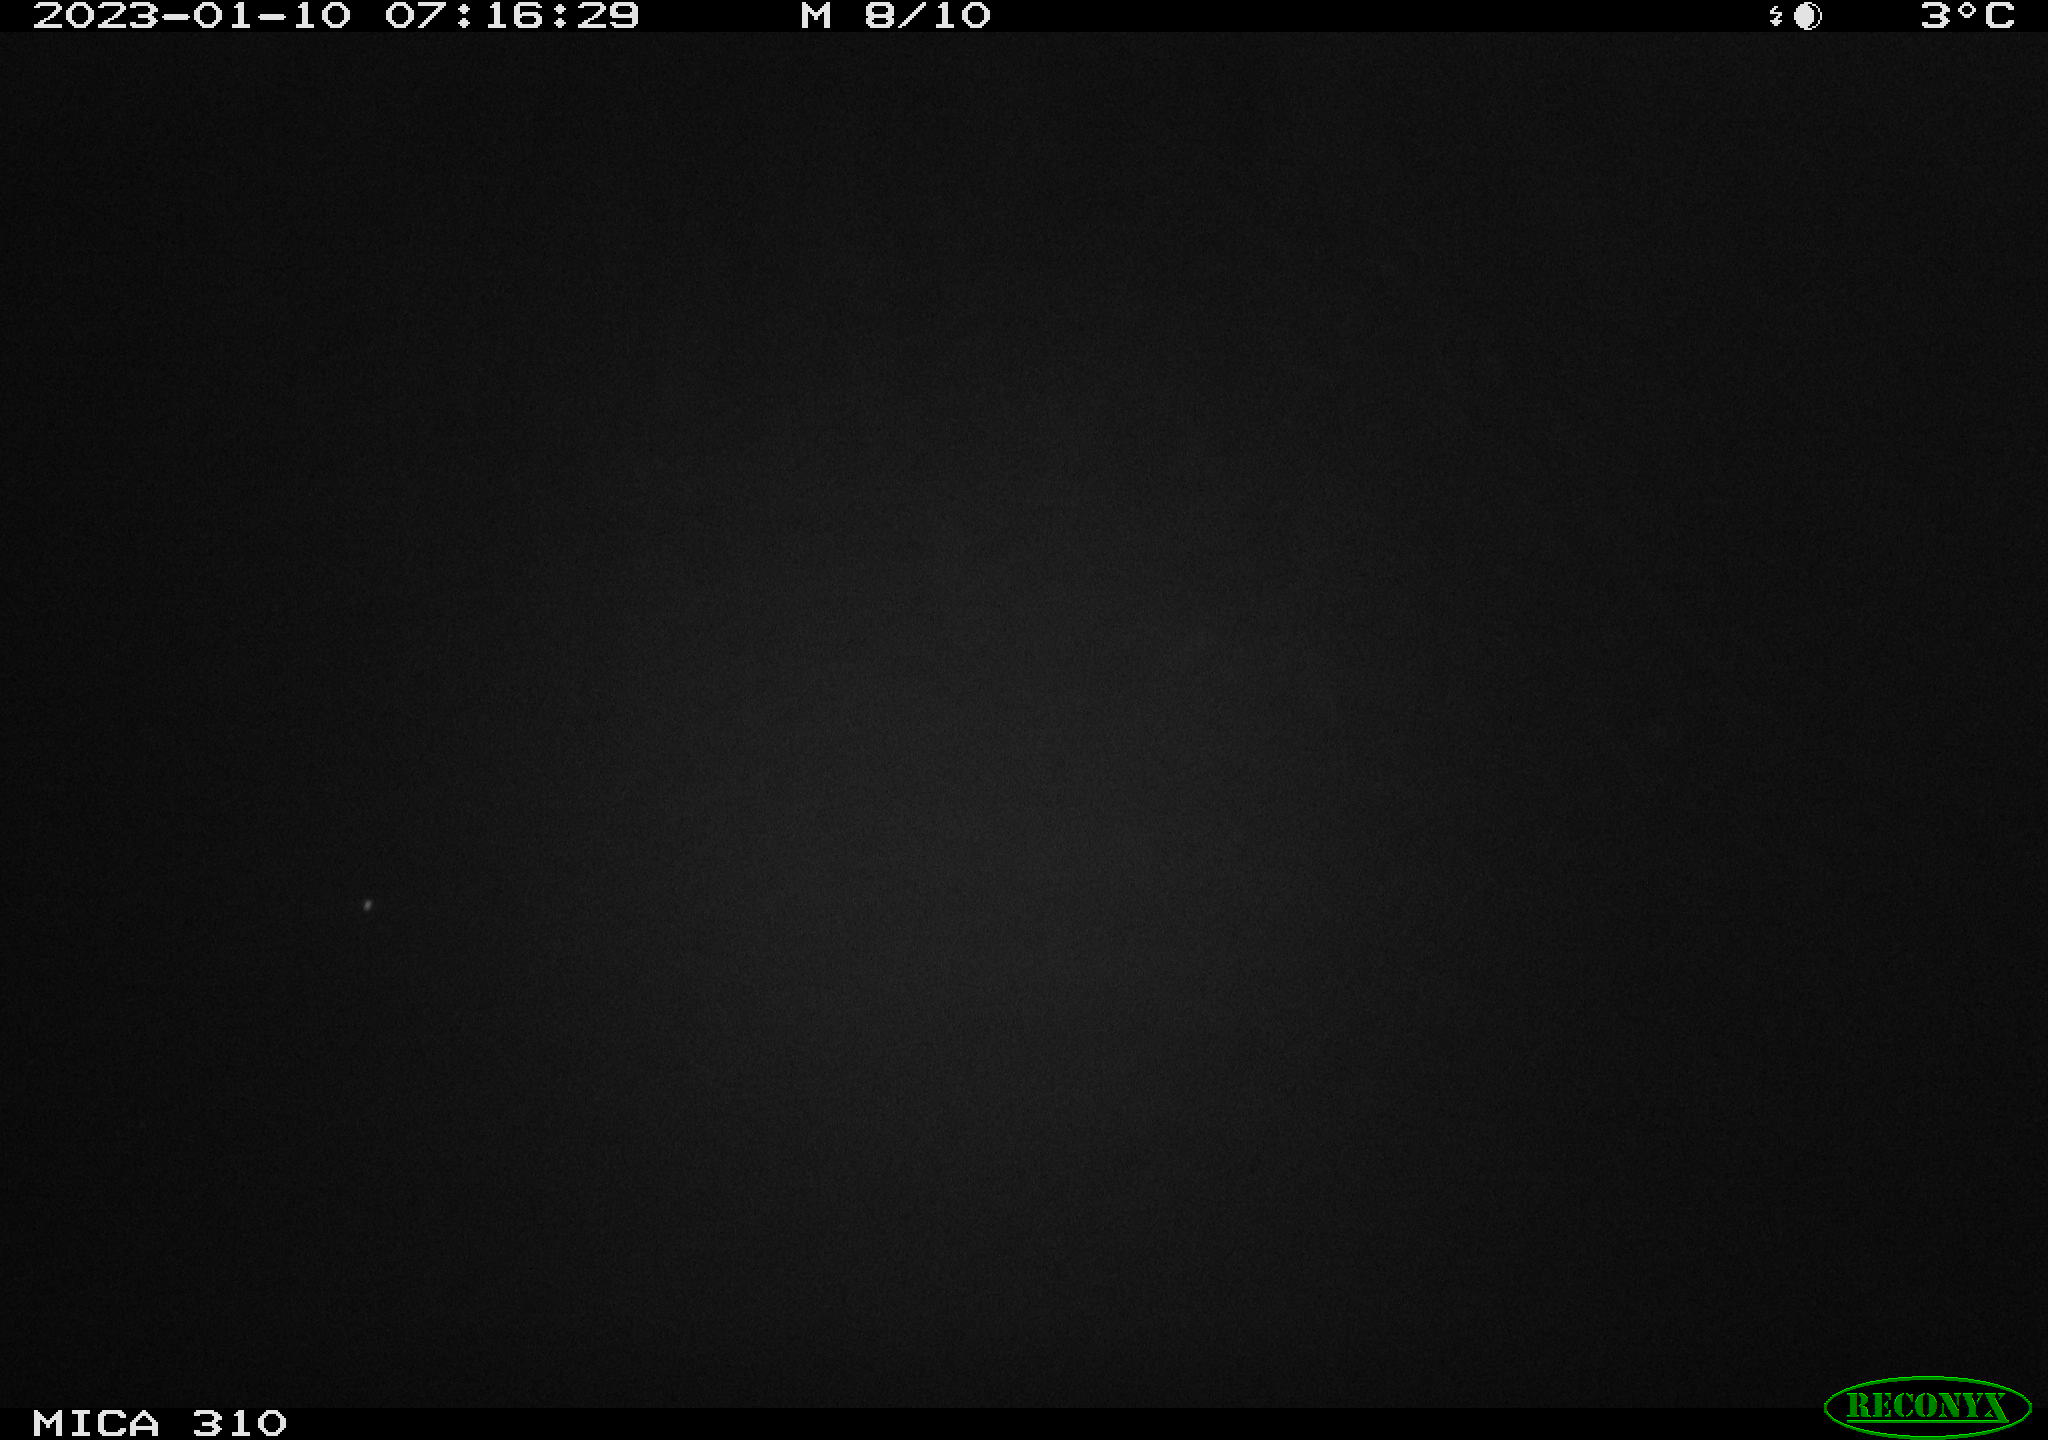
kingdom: Animalia
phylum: Chordata
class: Mammalia
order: Rodentia
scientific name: Rodentia
